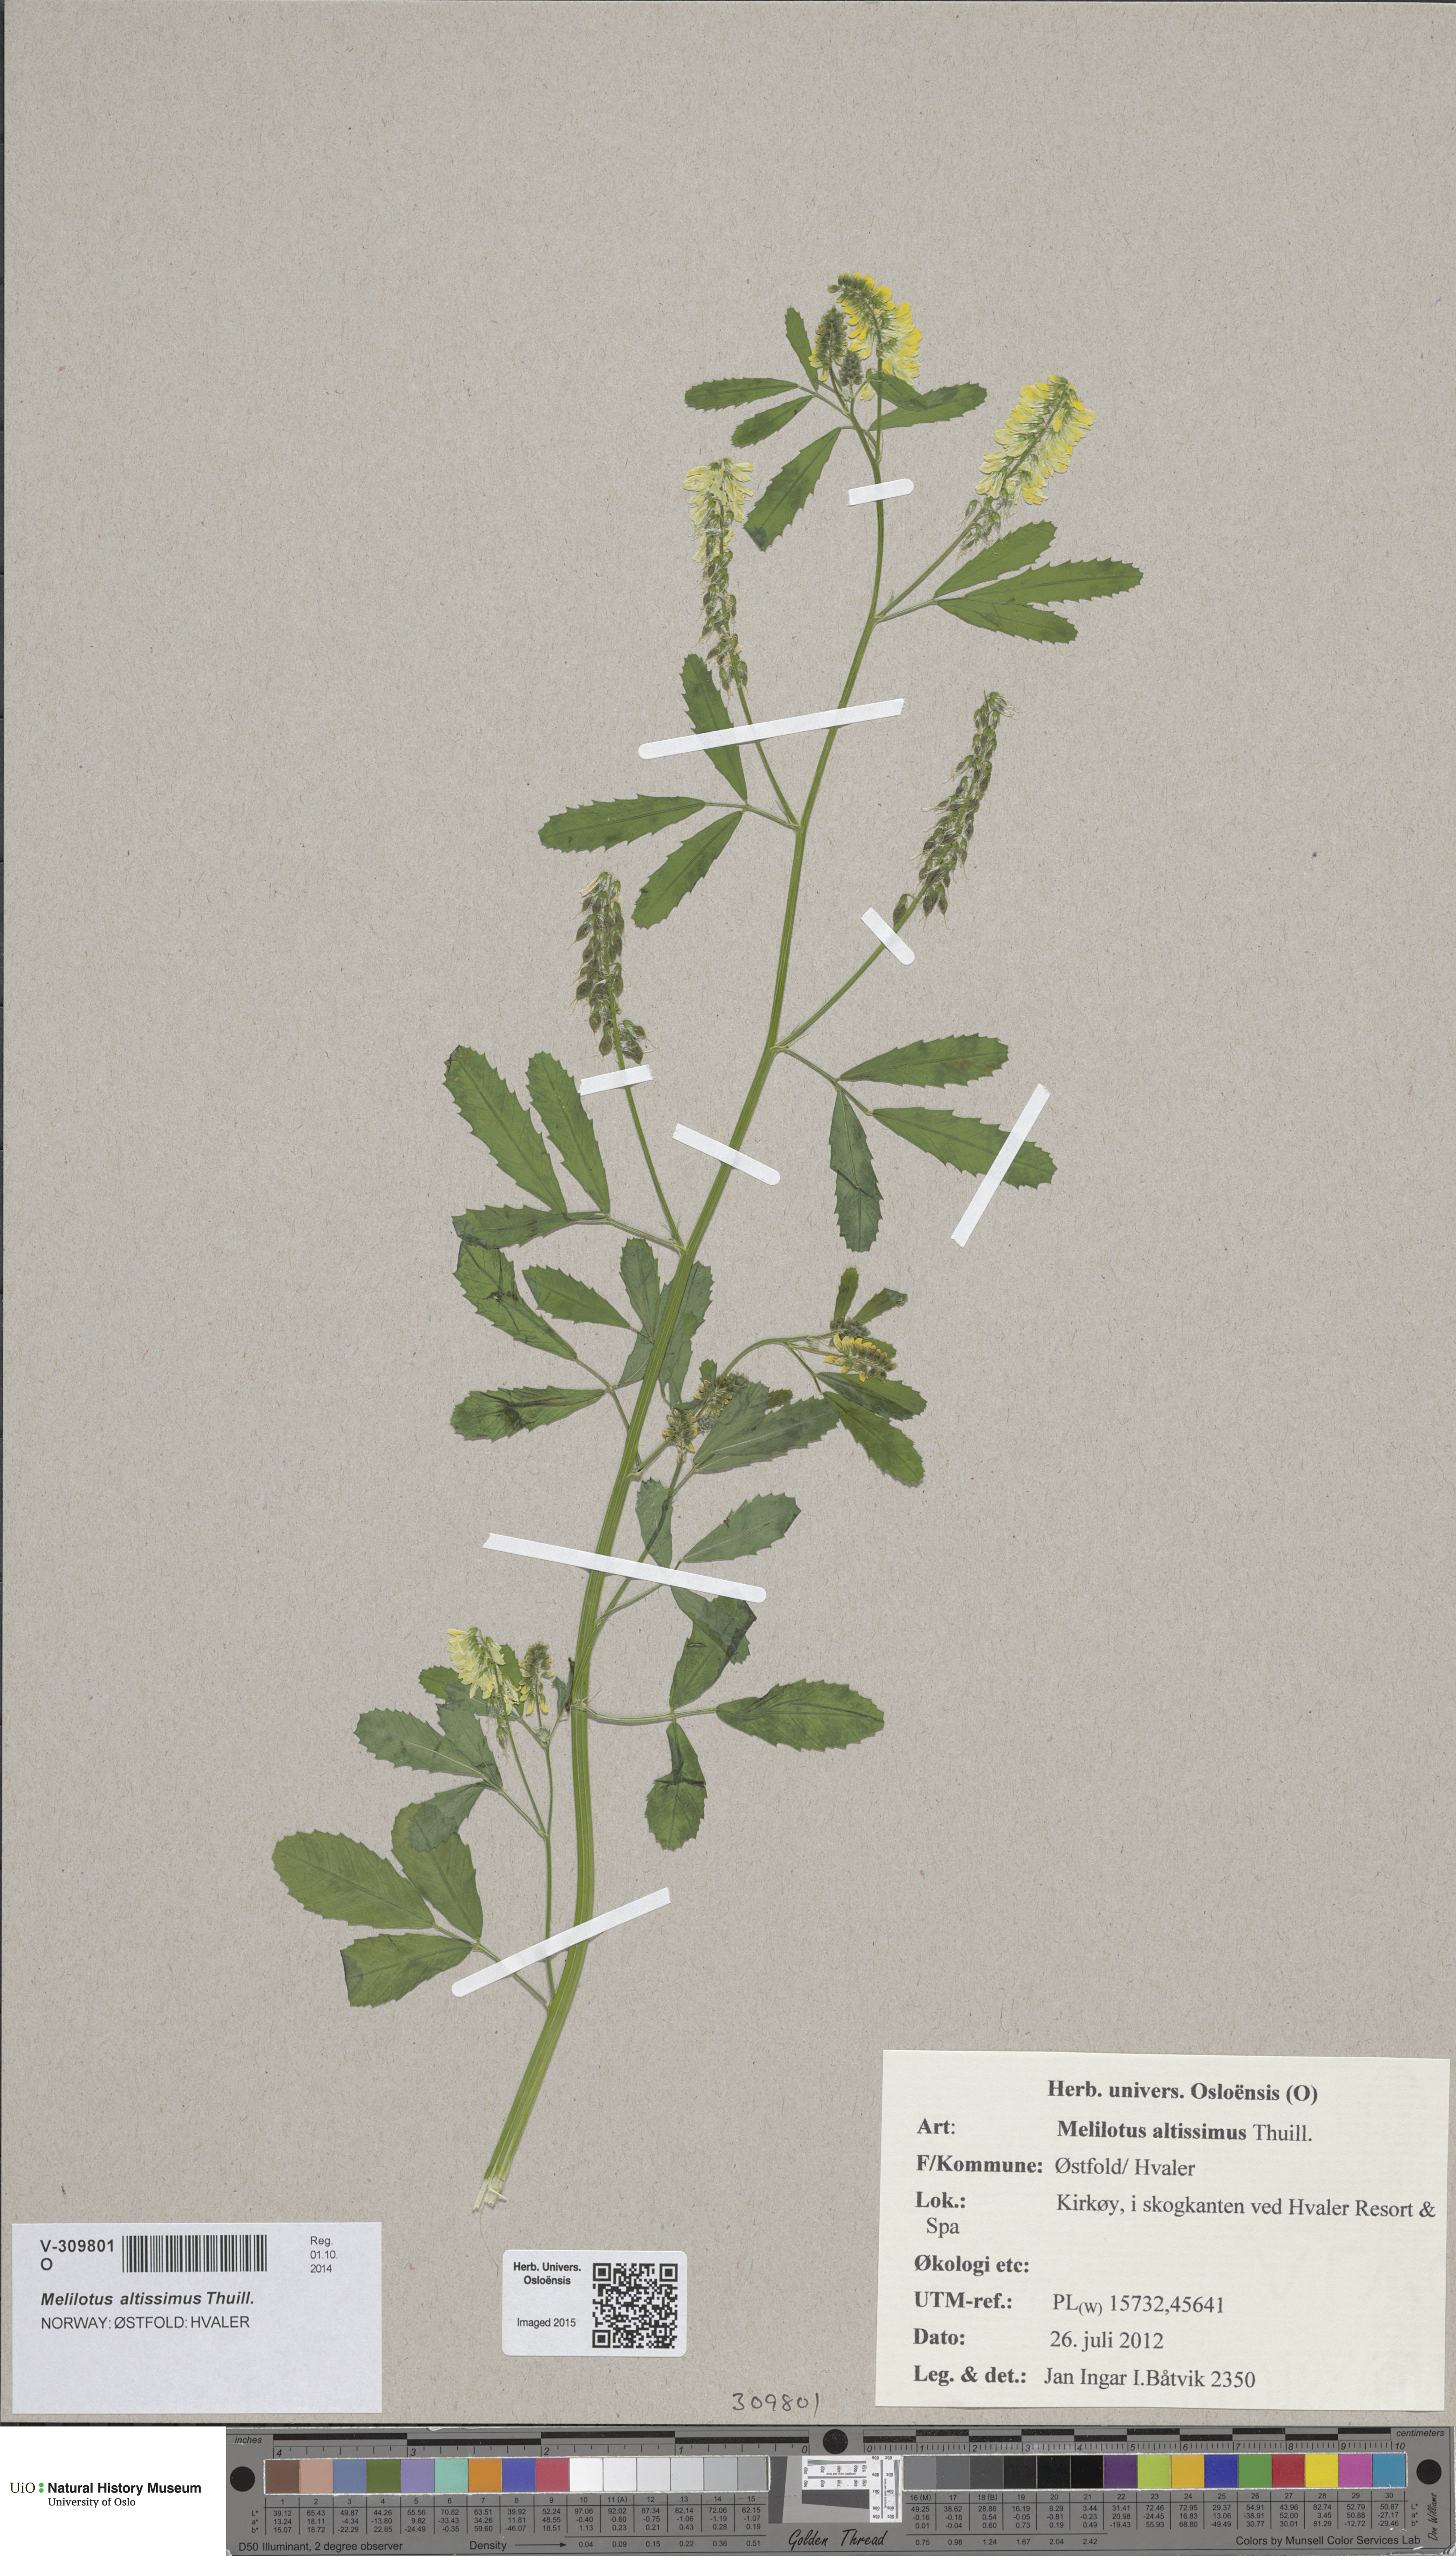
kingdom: Plantae
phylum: Tracheophyta
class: Magnoliopsida
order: Fabales
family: Fabaceae
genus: Melilotus
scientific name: Melilotus altissimus
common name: Tall melilot
